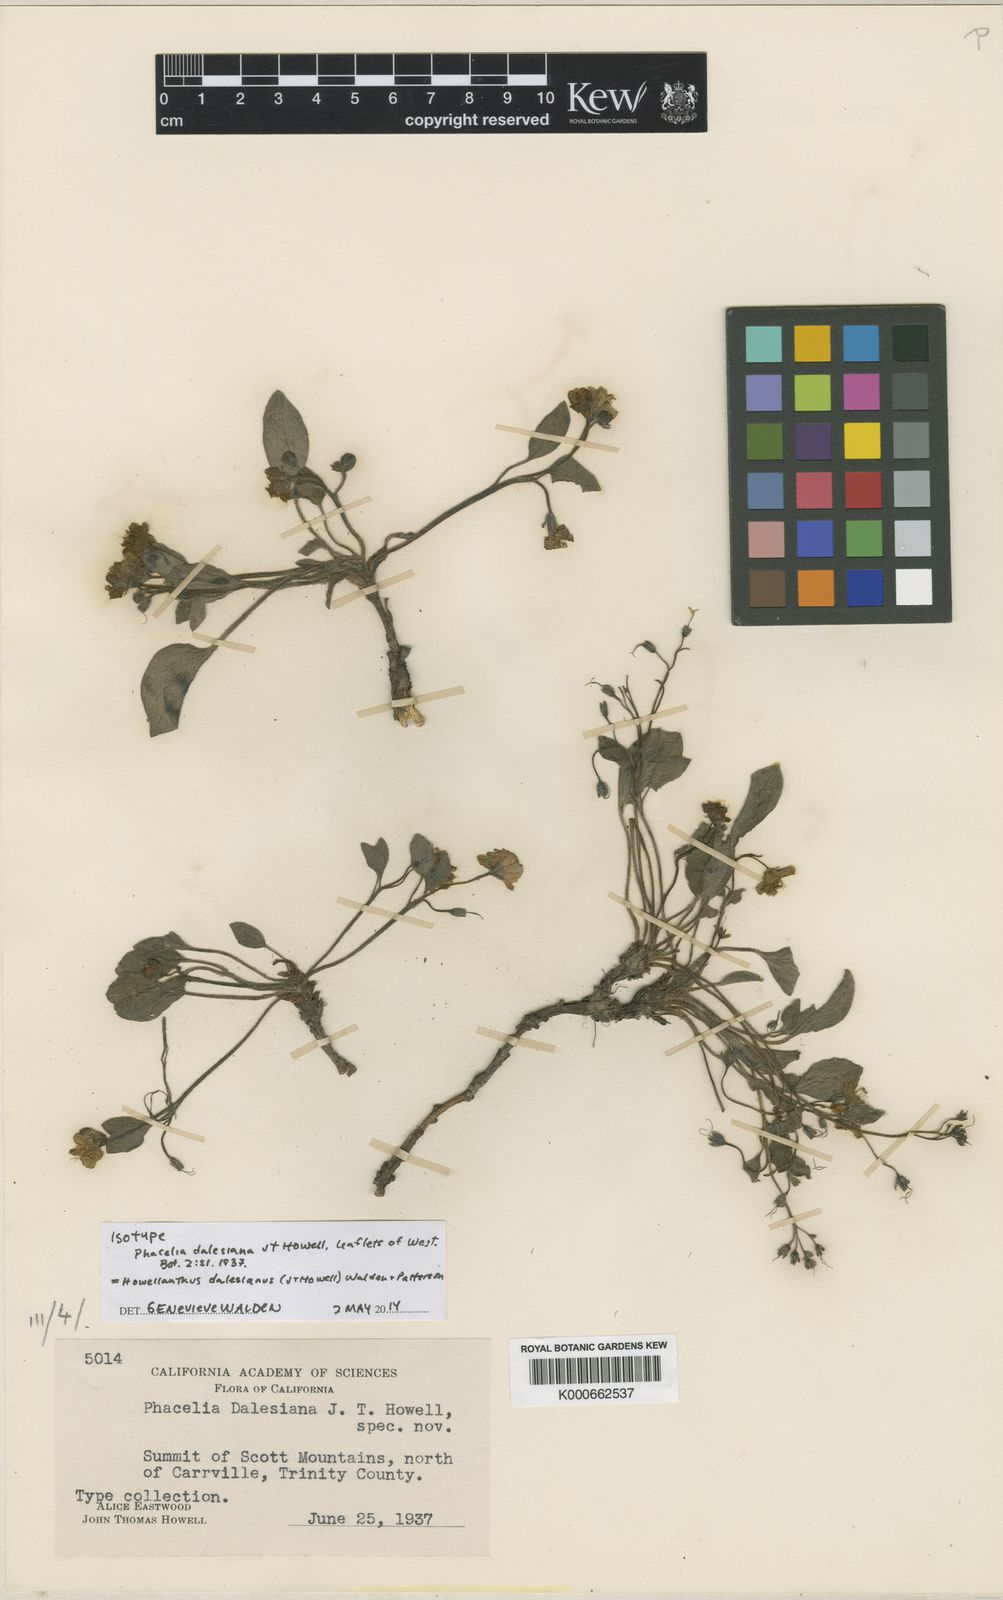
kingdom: Plantae
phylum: Tracheophyta
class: Magnoliopsida
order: Boraginales
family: Hydrophyllaceae
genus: Howellanthus
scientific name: Howellanthus dalesianus
